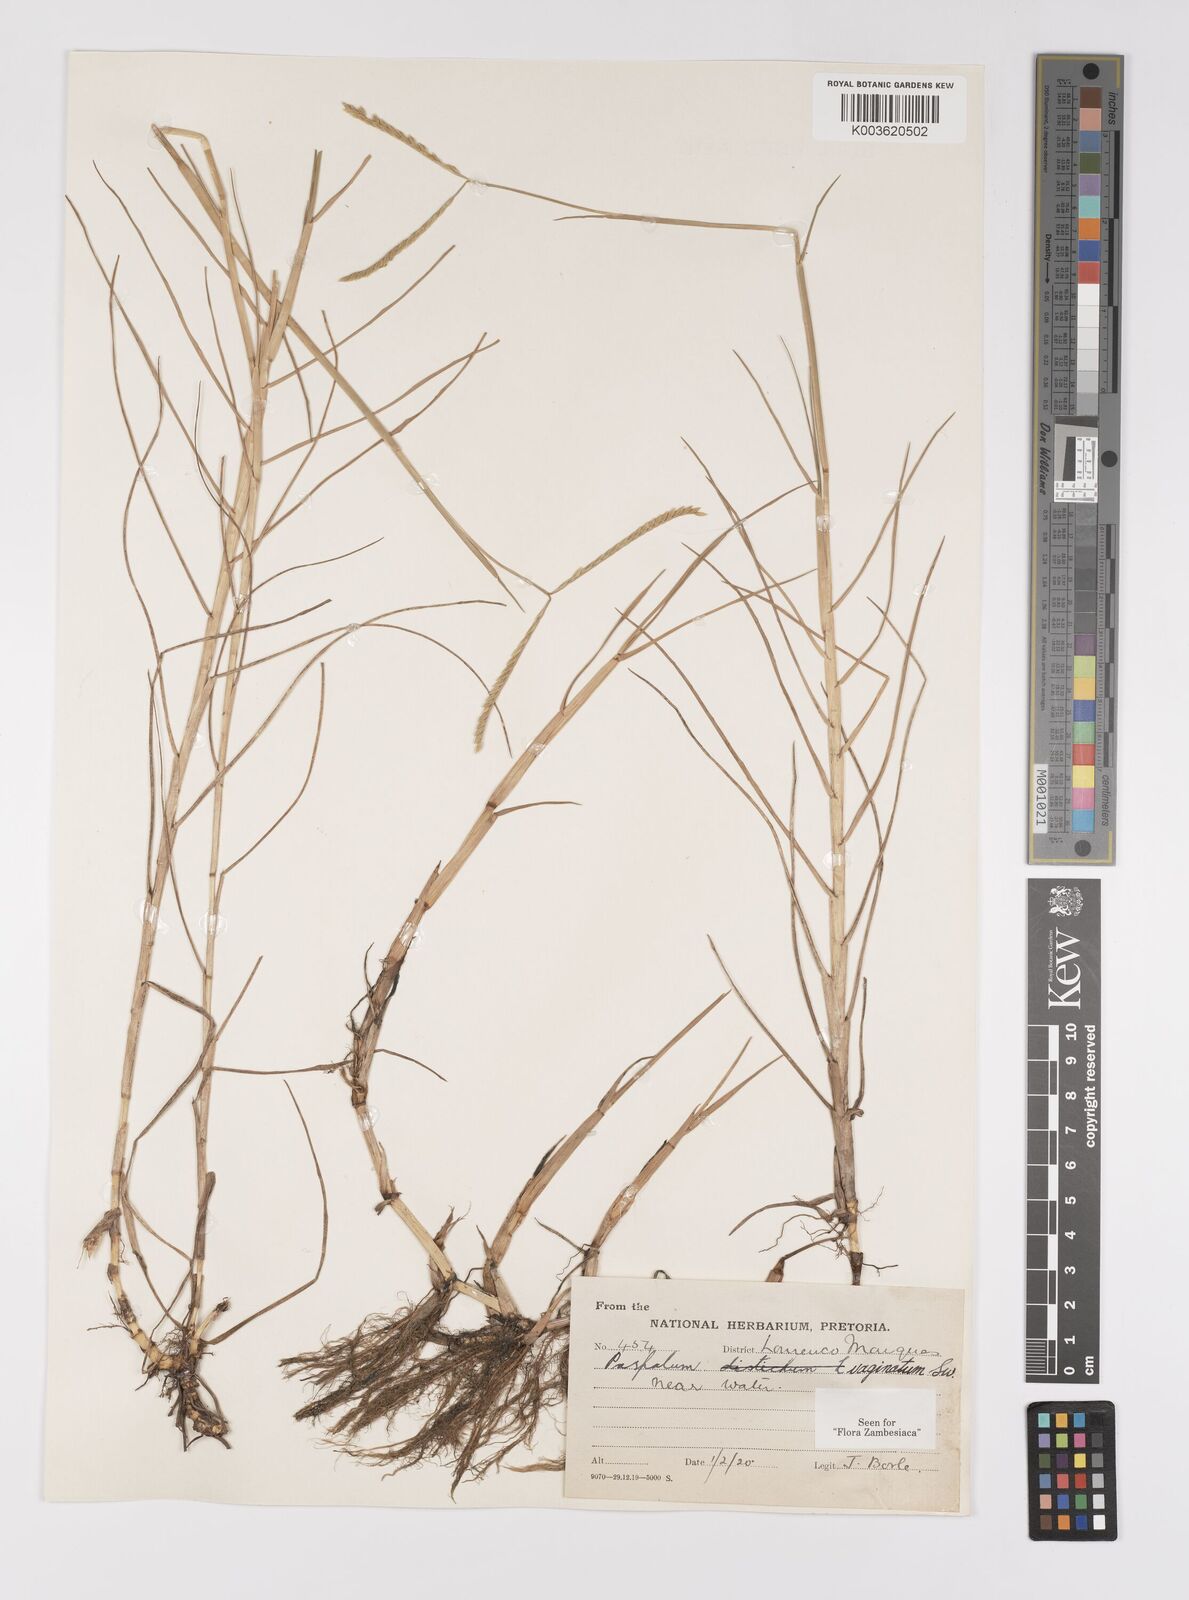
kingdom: Plantae
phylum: Tracheophyta
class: Liliopsida
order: Poales
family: Poaceae
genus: Paspalum
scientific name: Paspalum vaginatum
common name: Seashore paspalum
